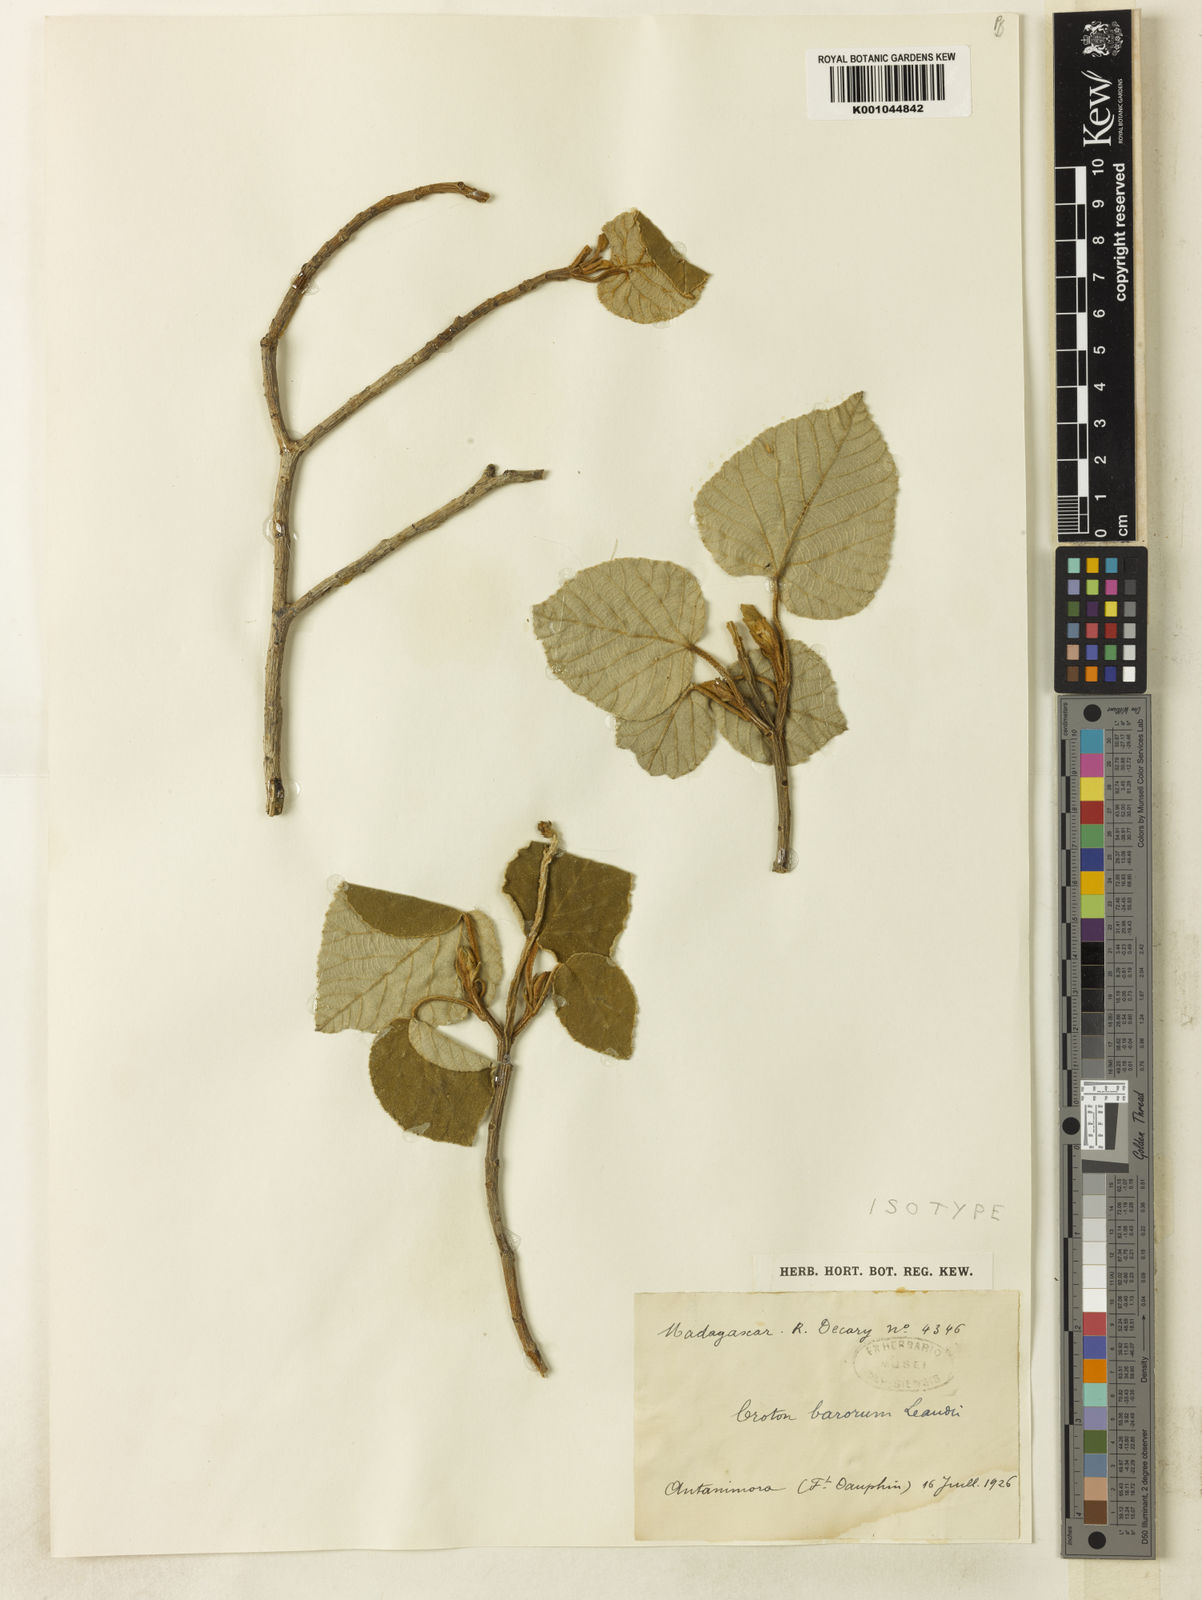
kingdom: Plantae
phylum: Tracheophyta
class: Magnoliopsida
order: Malpighiales
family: Euphorbiaceae
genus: Croton
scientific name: Croton barorum
